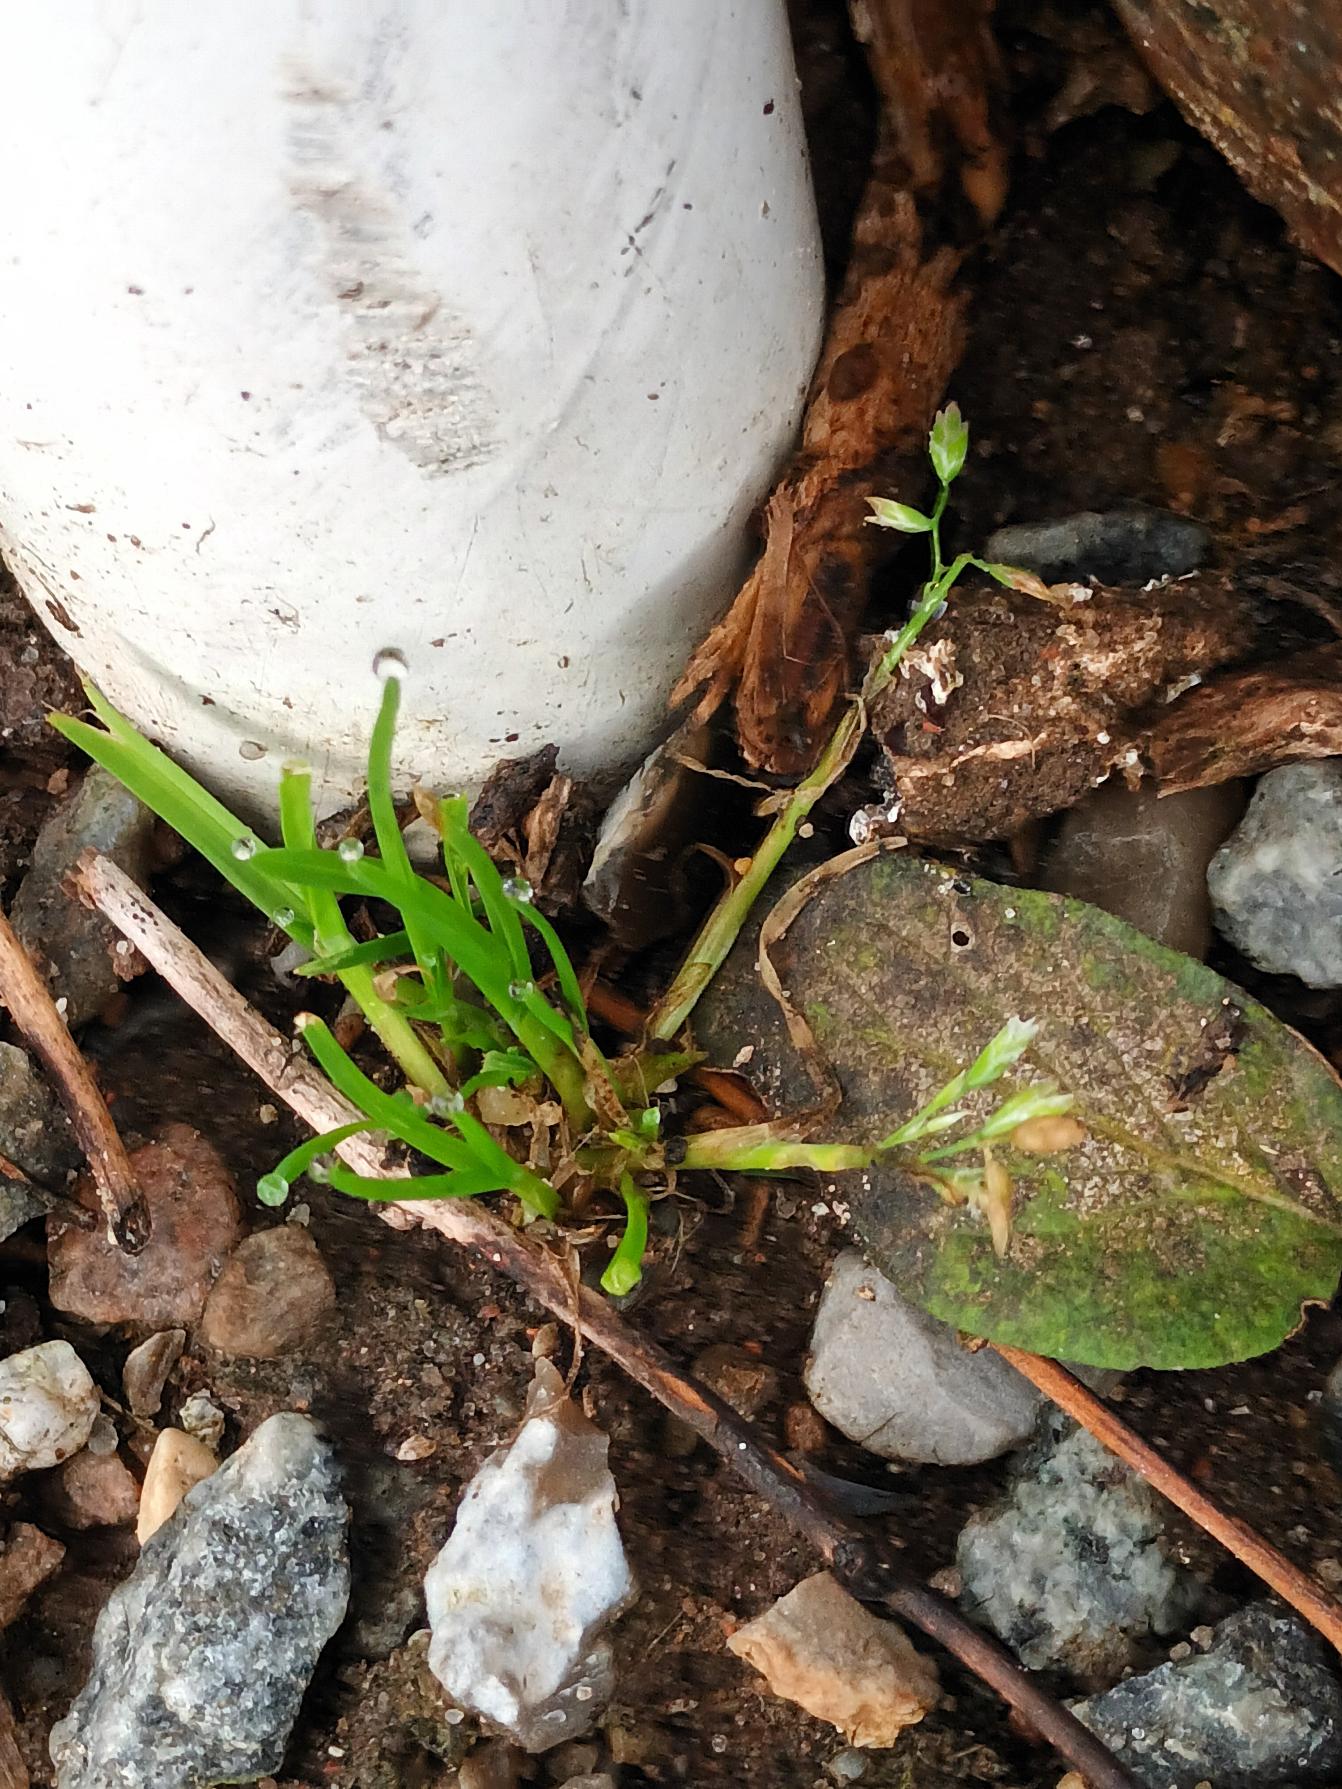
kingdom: Plantae
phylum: Tracheophyta
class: Liliopsida
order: Poales
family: Poaceae
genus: Poa
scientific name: Poa annua
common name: Enårig rapgræs
